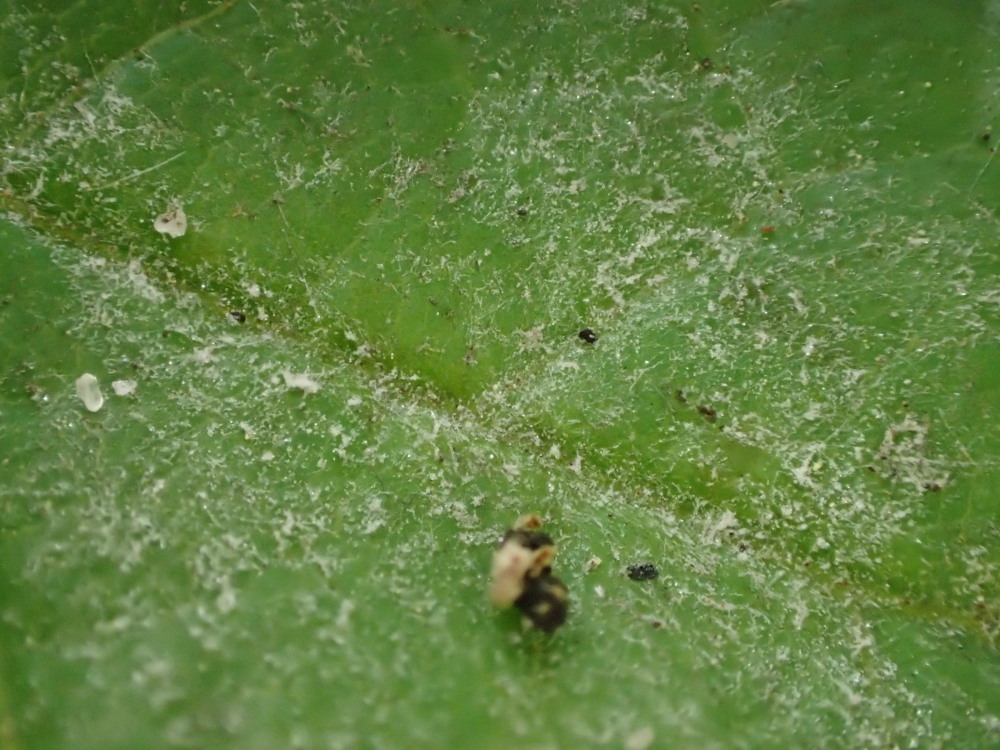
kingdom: Fungi
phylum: Ascomycota
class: Leotiomycetes
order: Helotiales
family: Erysiphaceae
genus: Sawadaea
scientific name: Sawadaea bicornis
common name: Maple mildew
